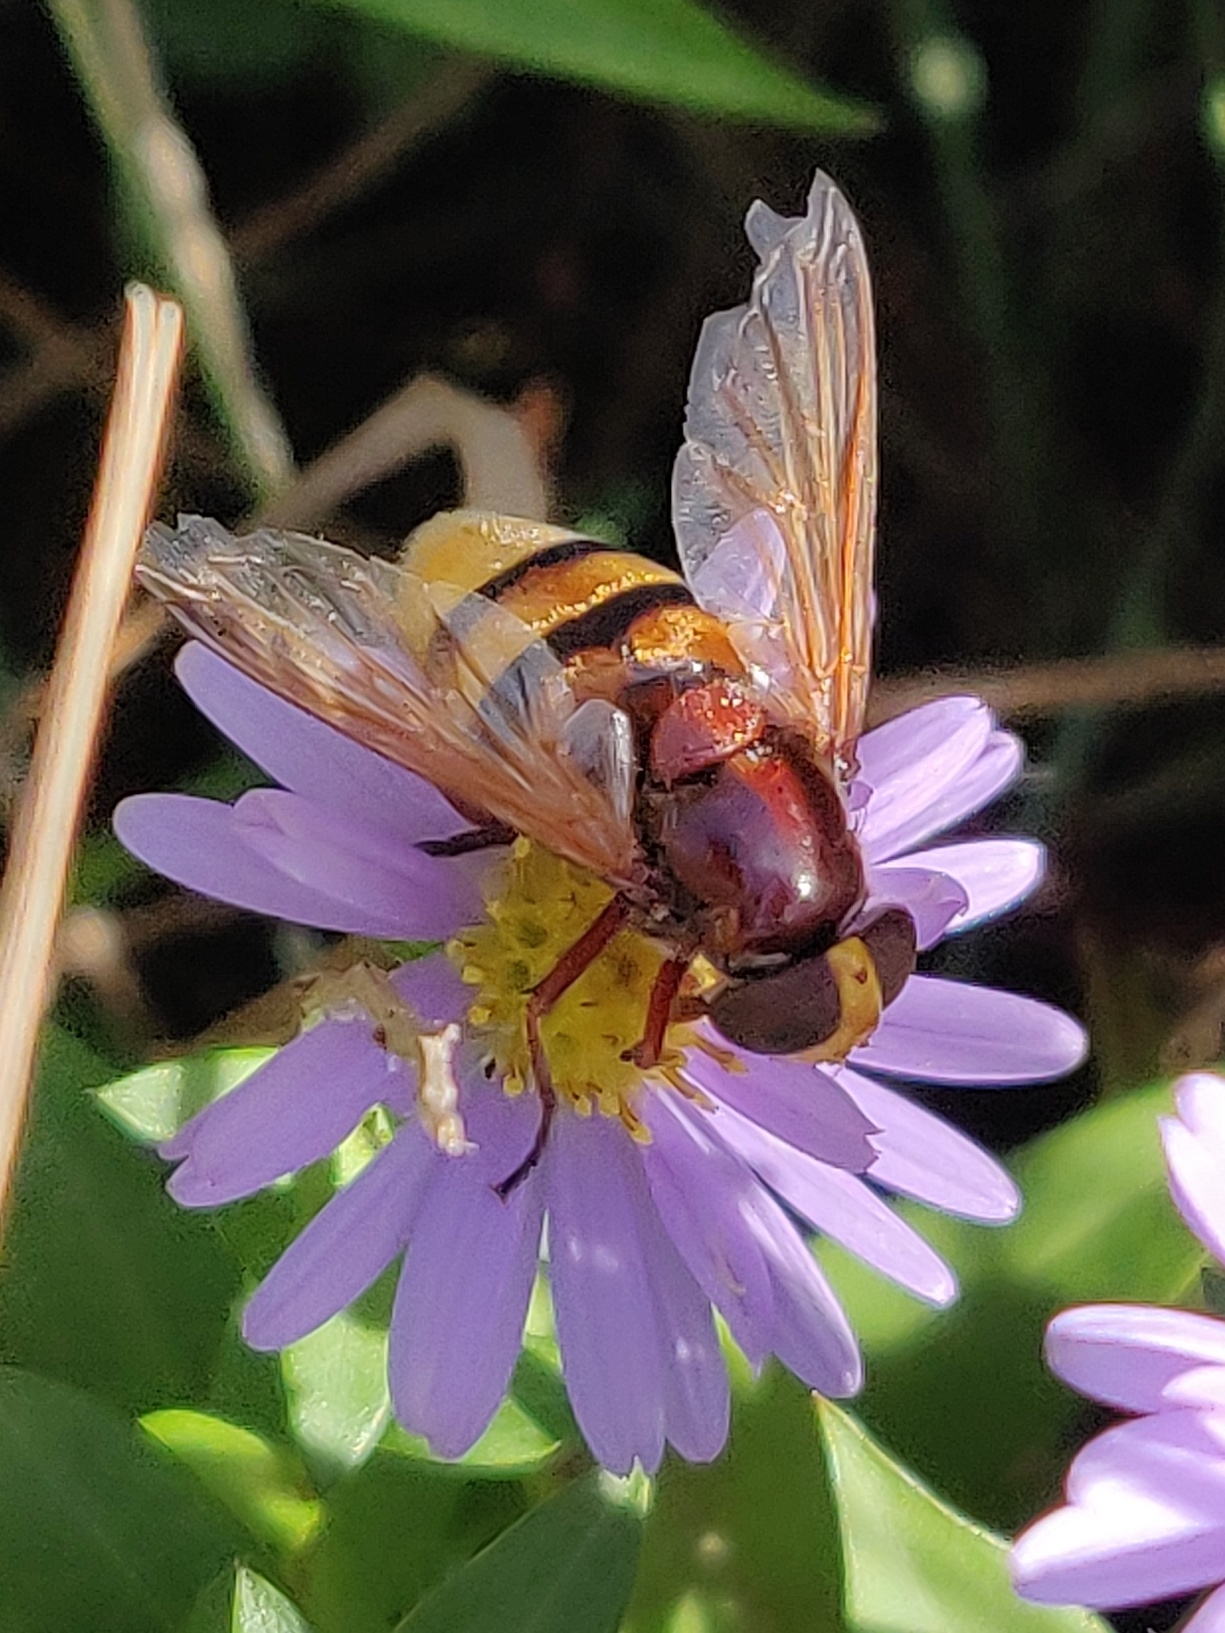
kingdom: Animalia
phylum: Arthropoda
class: Insecta
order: Diptera
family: Syrphidae
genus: Volucella
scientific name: Volucella zonaria
